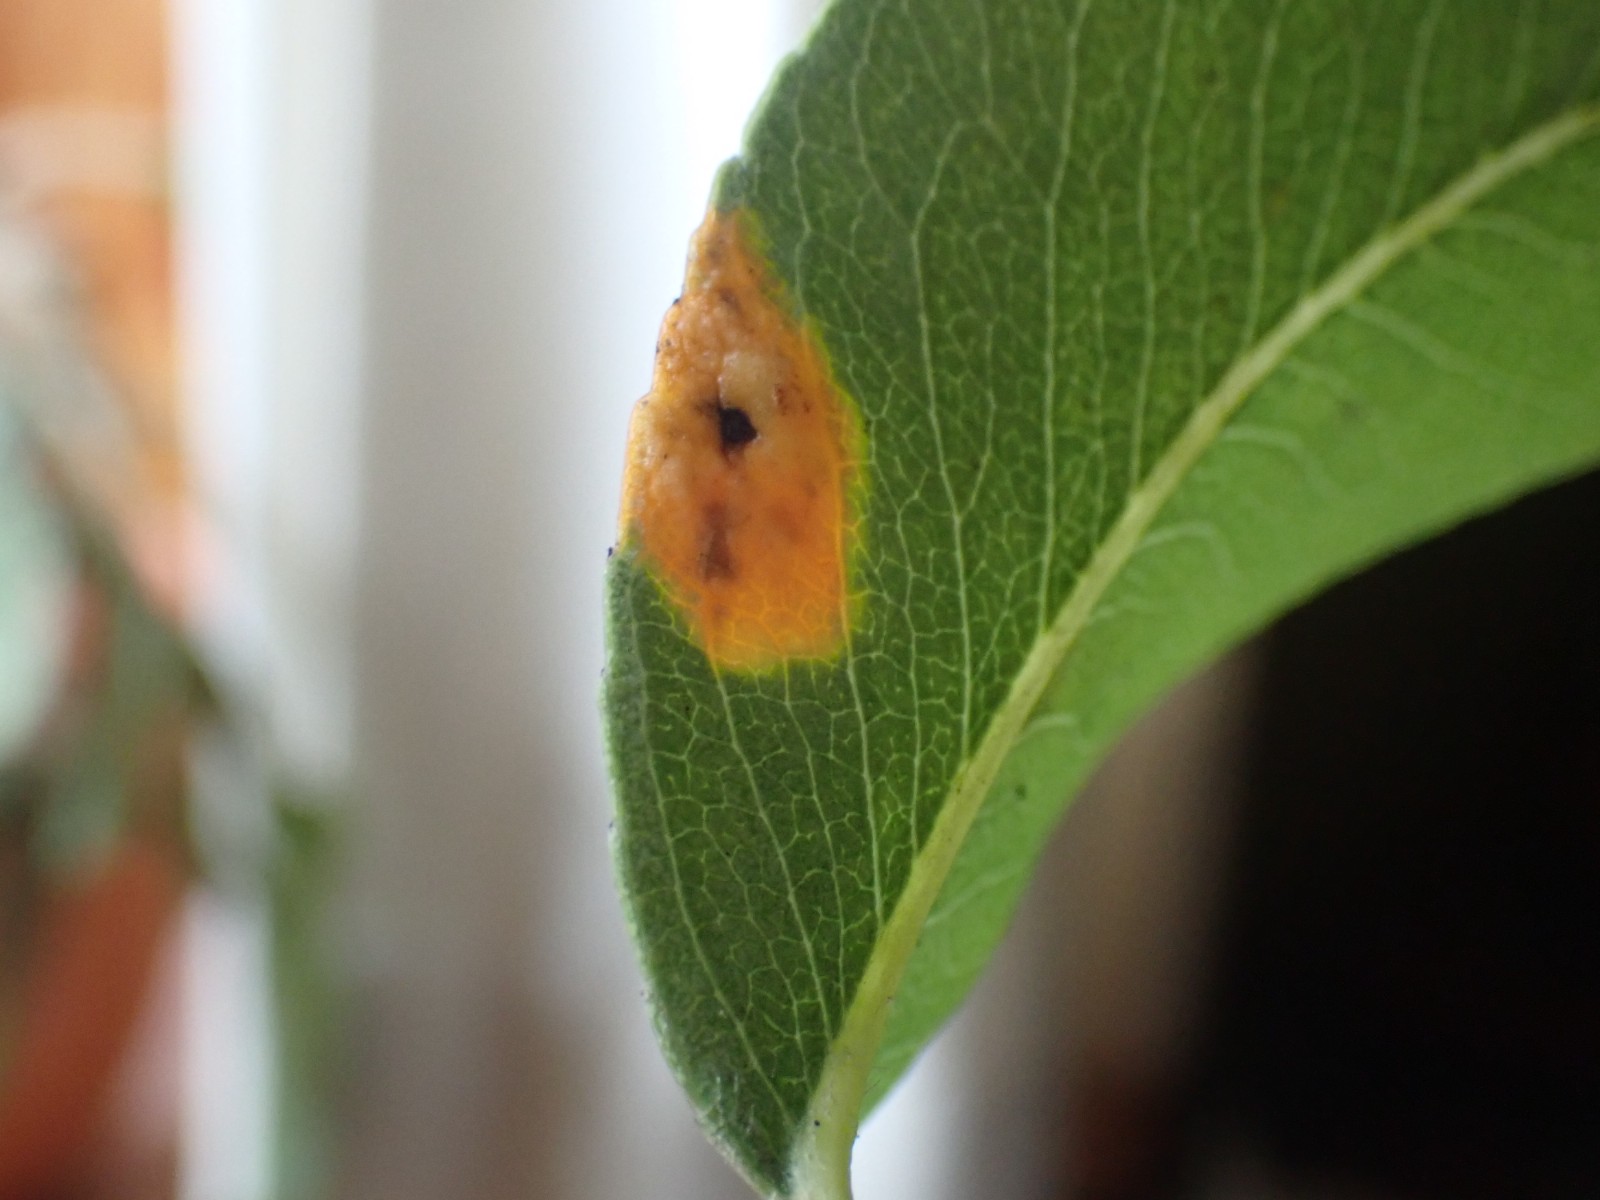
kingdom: Fungi
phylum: Basidiomycota
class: Pucciniomycetes
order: Pucciniales
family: Gymnosporangiaceae
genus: Gymnosporangium
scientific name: Gymnosporangium sabinae
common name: pæregitter-bævrerust
